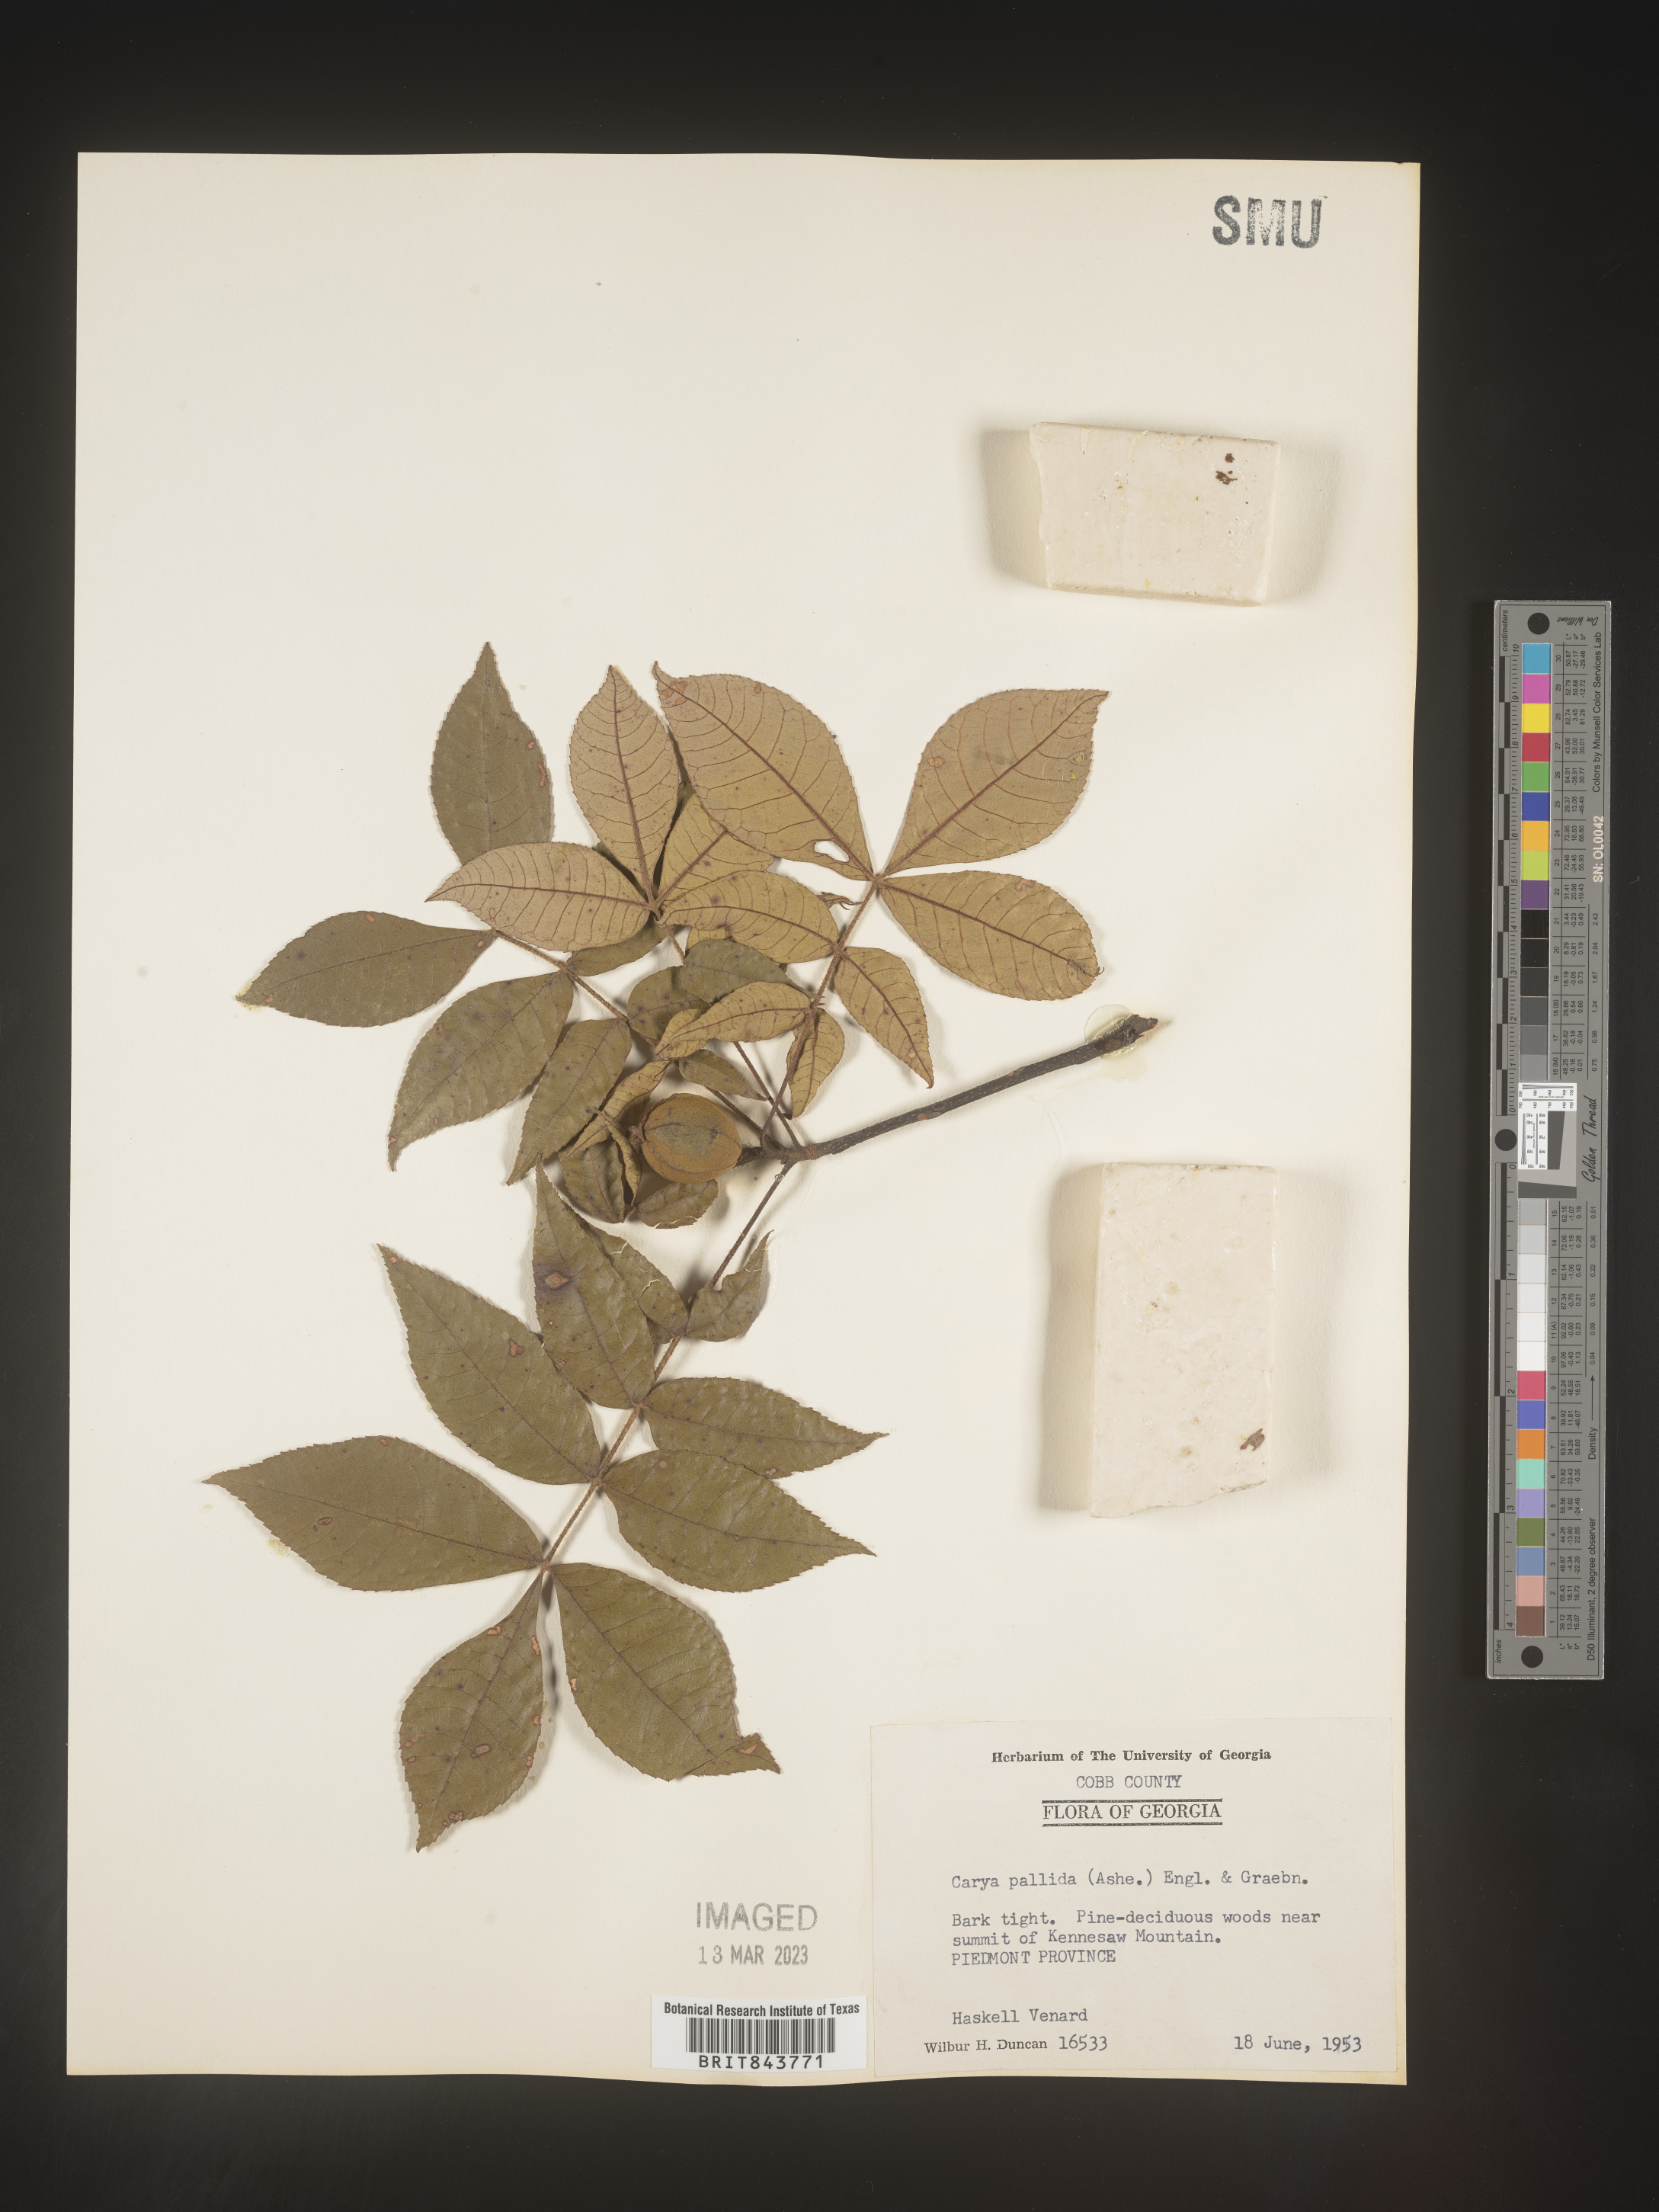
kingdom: Plantae
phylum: Tracheophyta
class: Magnoliopsida
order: Fagales
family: Juglandaceae
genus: Carya
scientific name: Carya pallida
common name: Sand hickory
